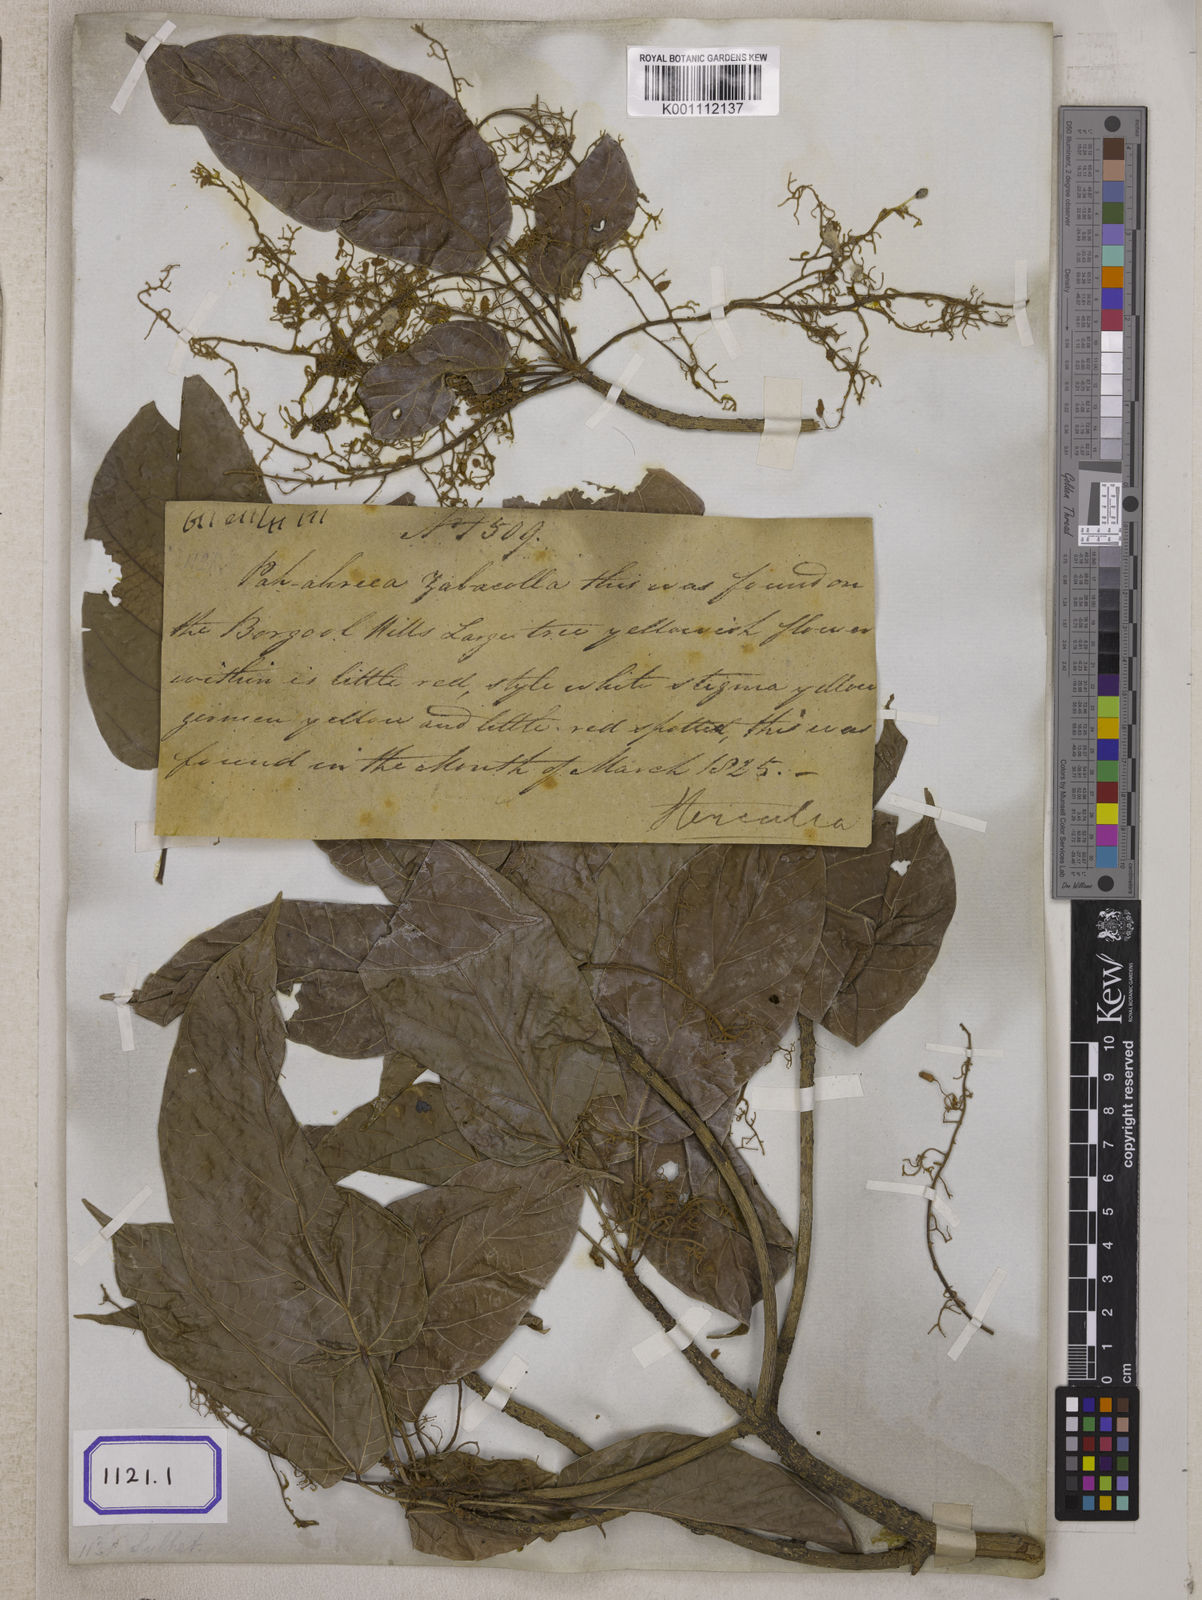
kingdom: Plantae
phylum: Tracheophyta
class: Magnoliopsida
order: Malvales
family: Malvaceae
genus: Sterculia
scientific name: Sterculia
